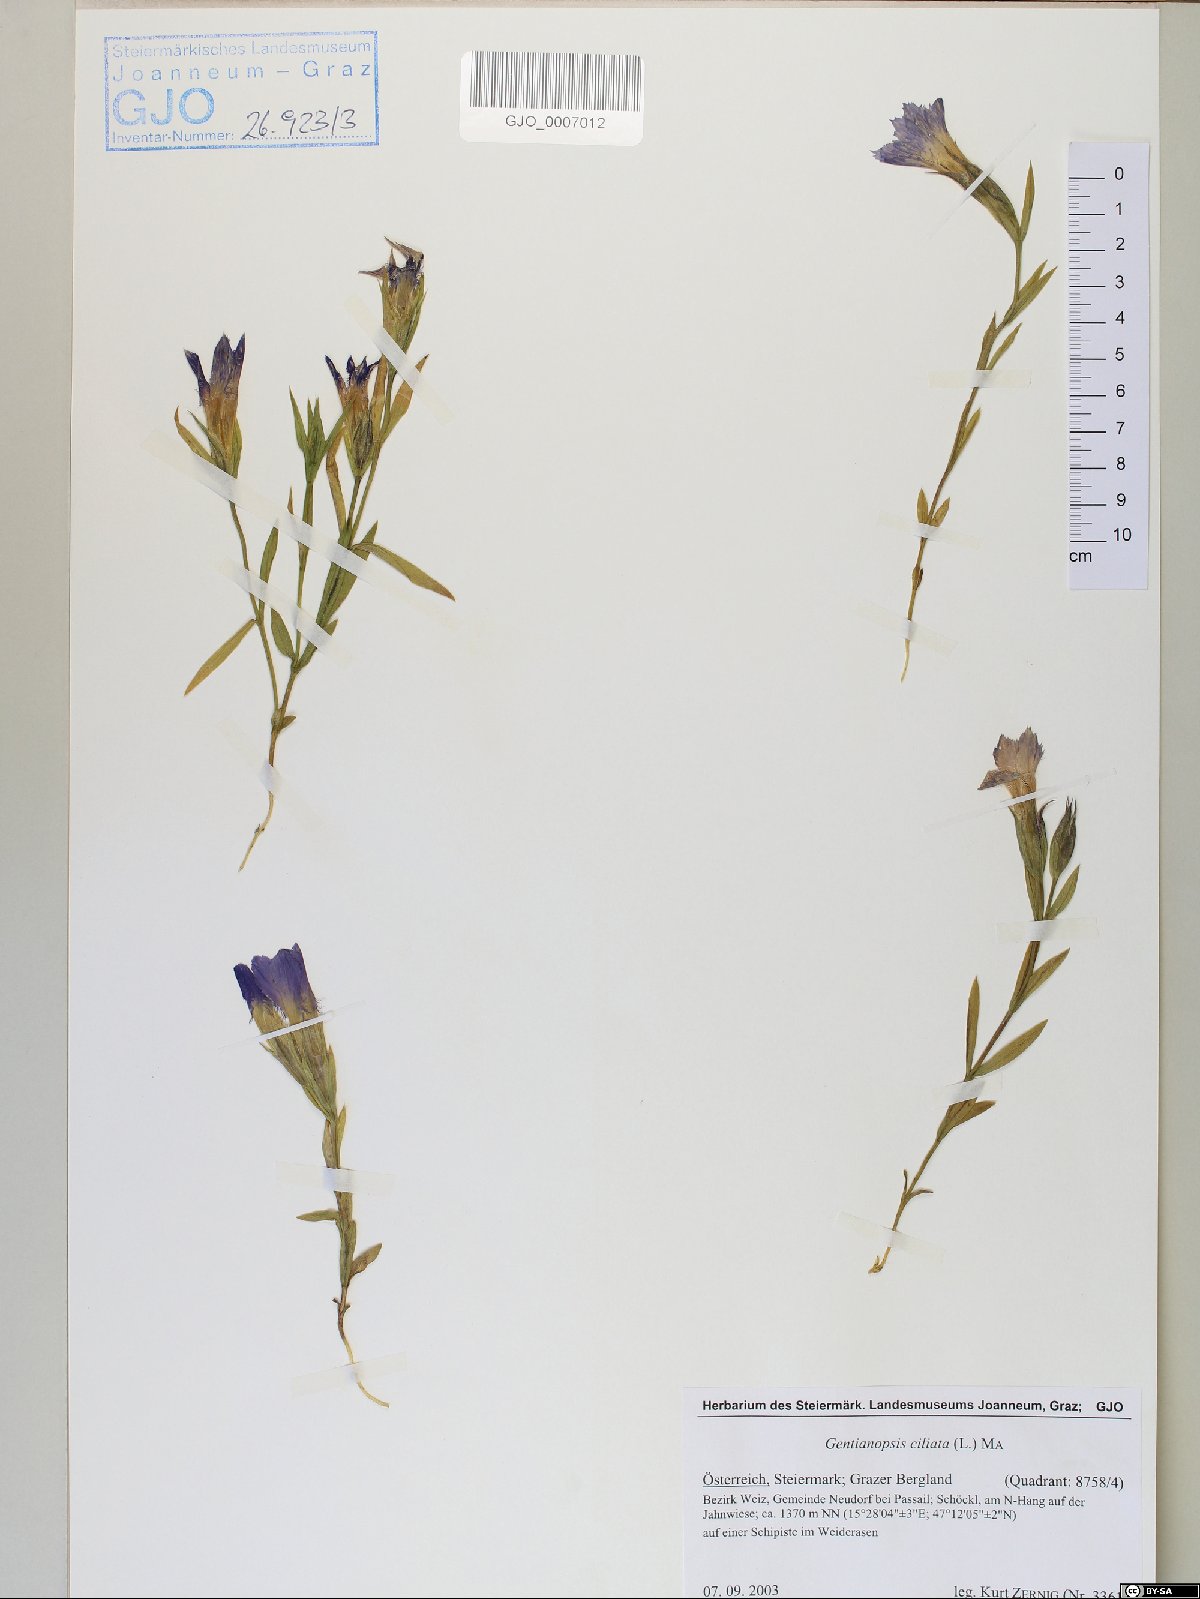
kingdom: Plantae
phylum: Tracheophyta
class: Magnoliopsida
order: Gentianales
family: Gentianaceae
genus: Gentianopsis
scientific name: Gentianopsis ciliata
